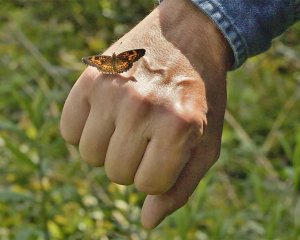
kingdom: Animalia
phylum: Arthropoda
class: Insecta
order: Lepidoptera
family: Nymphalidae
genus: Chlosyne
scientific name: Chlosyne harrisii
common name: Harris's Checkerspot
